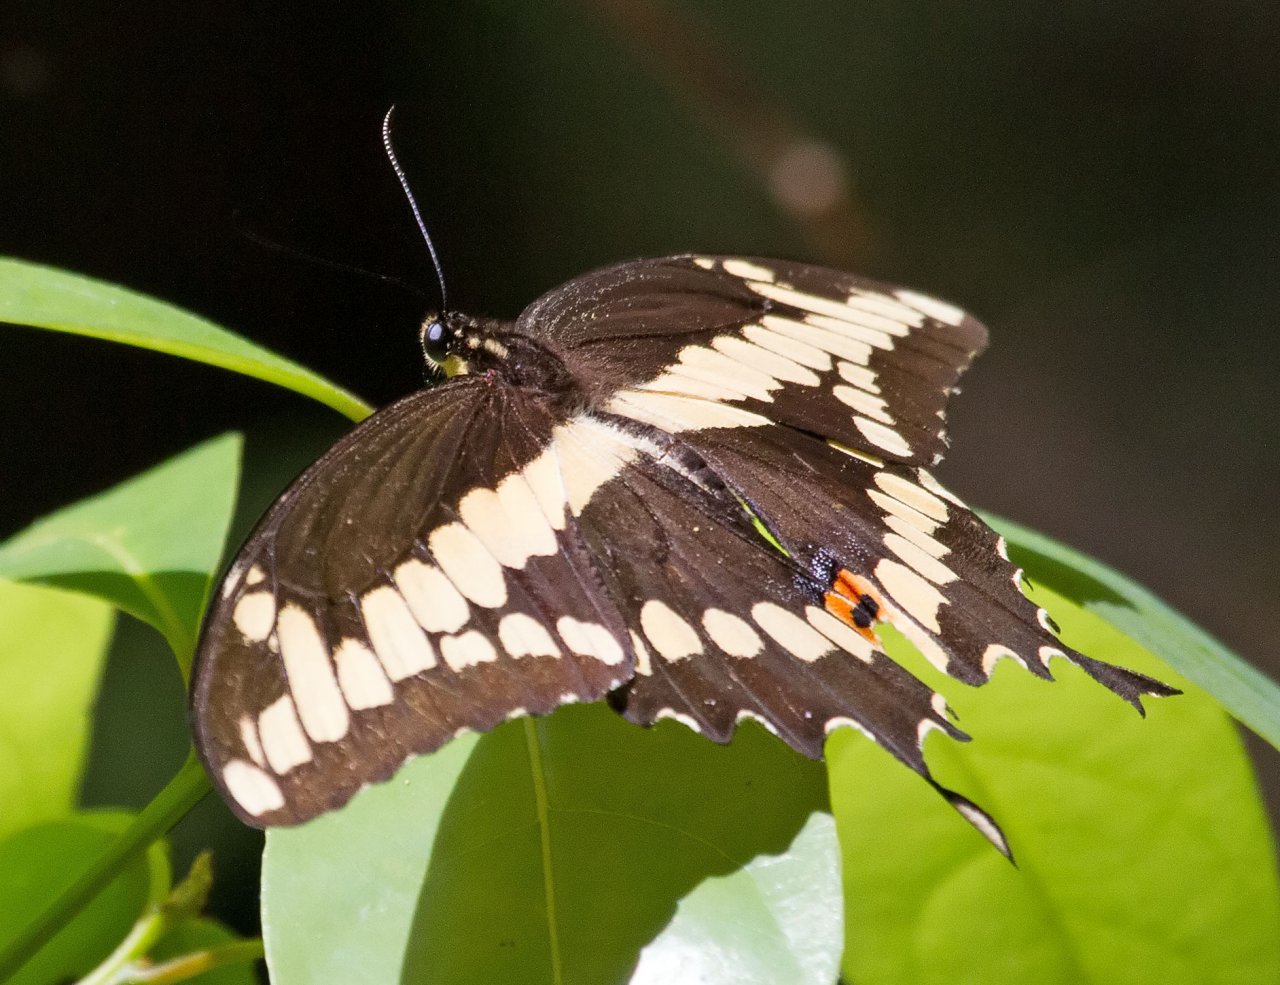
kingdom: Animalia
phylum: Arthropoda
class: Insecta
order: Lepidoptera
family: Papilionidae
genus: Papilio
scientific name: Papilio cresphontes
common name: Eastern Giant Swallowtail
